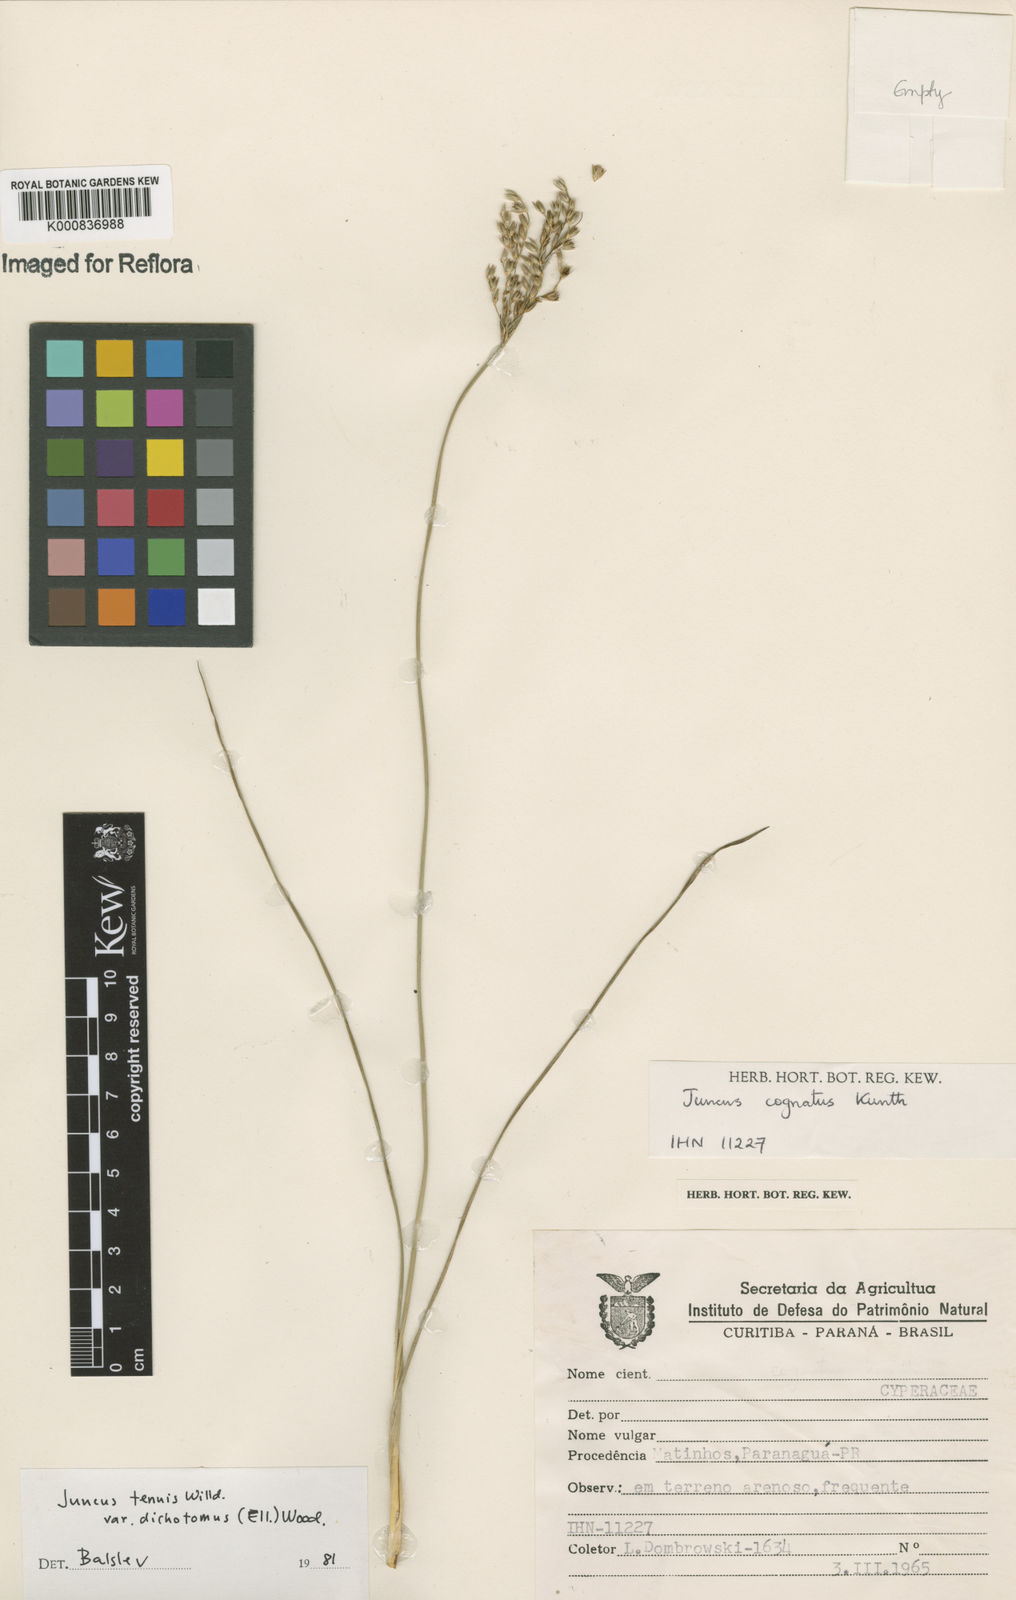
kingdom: Plantae
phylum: Tracheophyta
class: Liliopsida
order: Poales
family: Juncaceae
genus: Juncus
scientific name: Juncus
